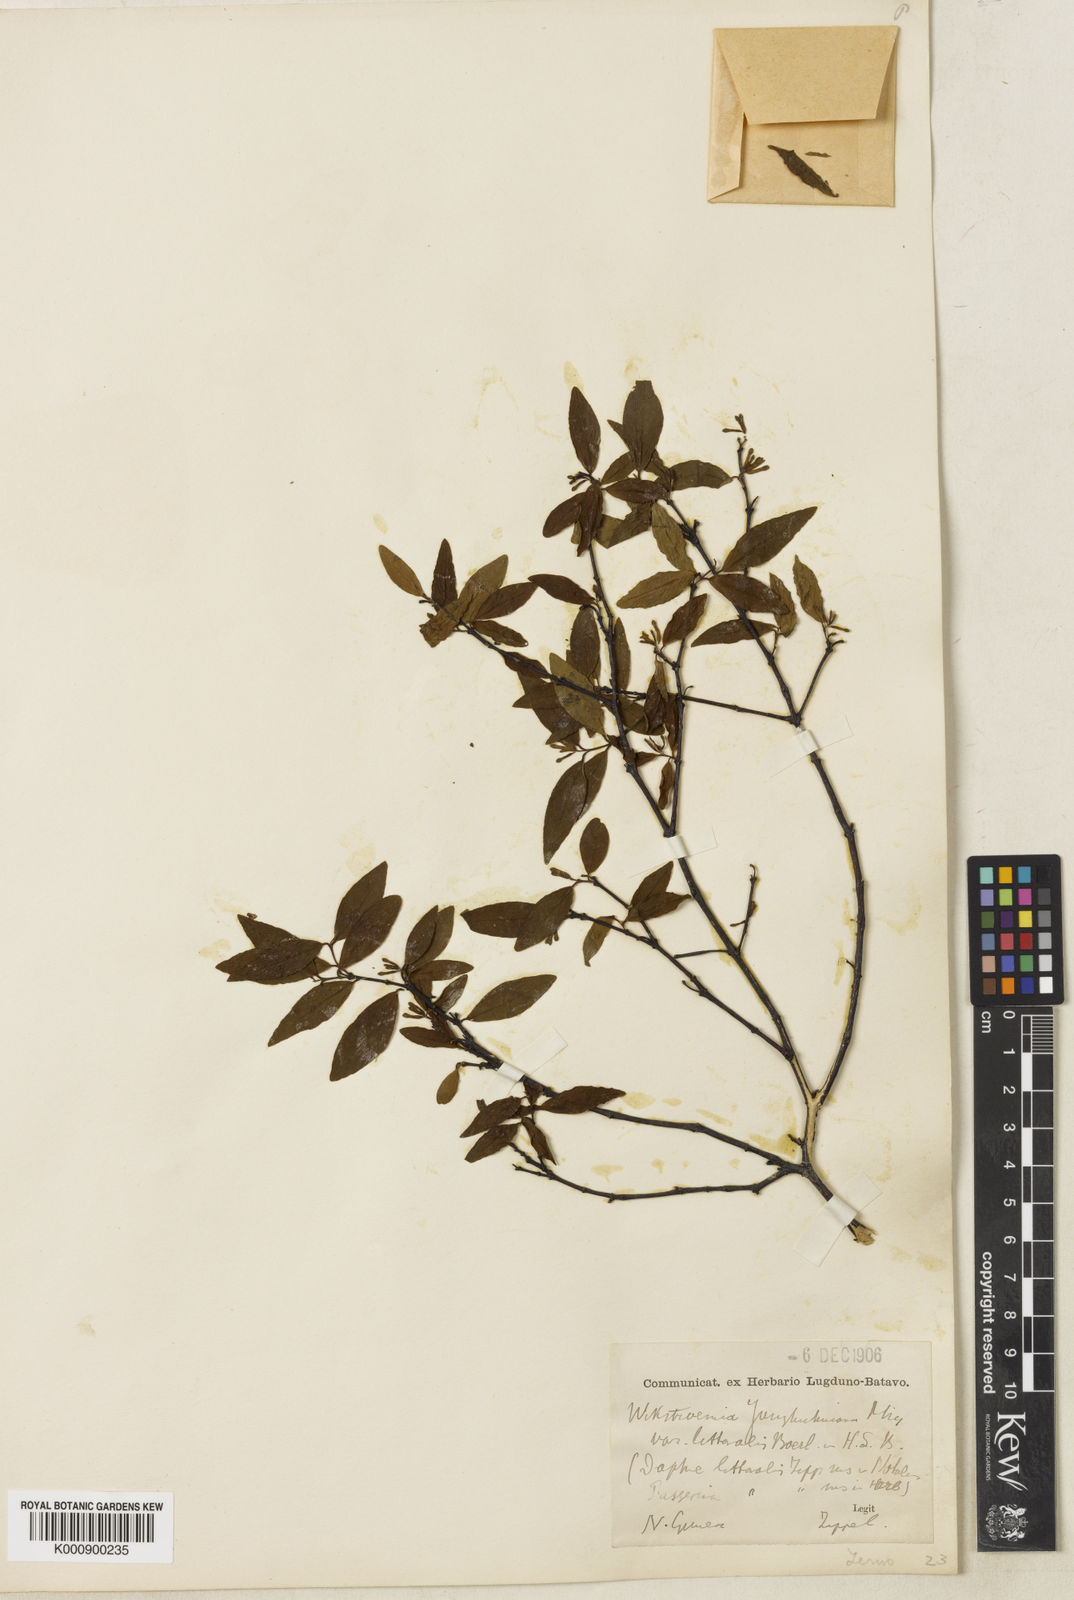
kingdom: Plantae
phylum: Tracheophyta
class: Magnoliopsida
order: Malvales
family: Thymelaeaceae
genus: Wikstroemia
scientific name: Wikstroemia lamatsoensis
